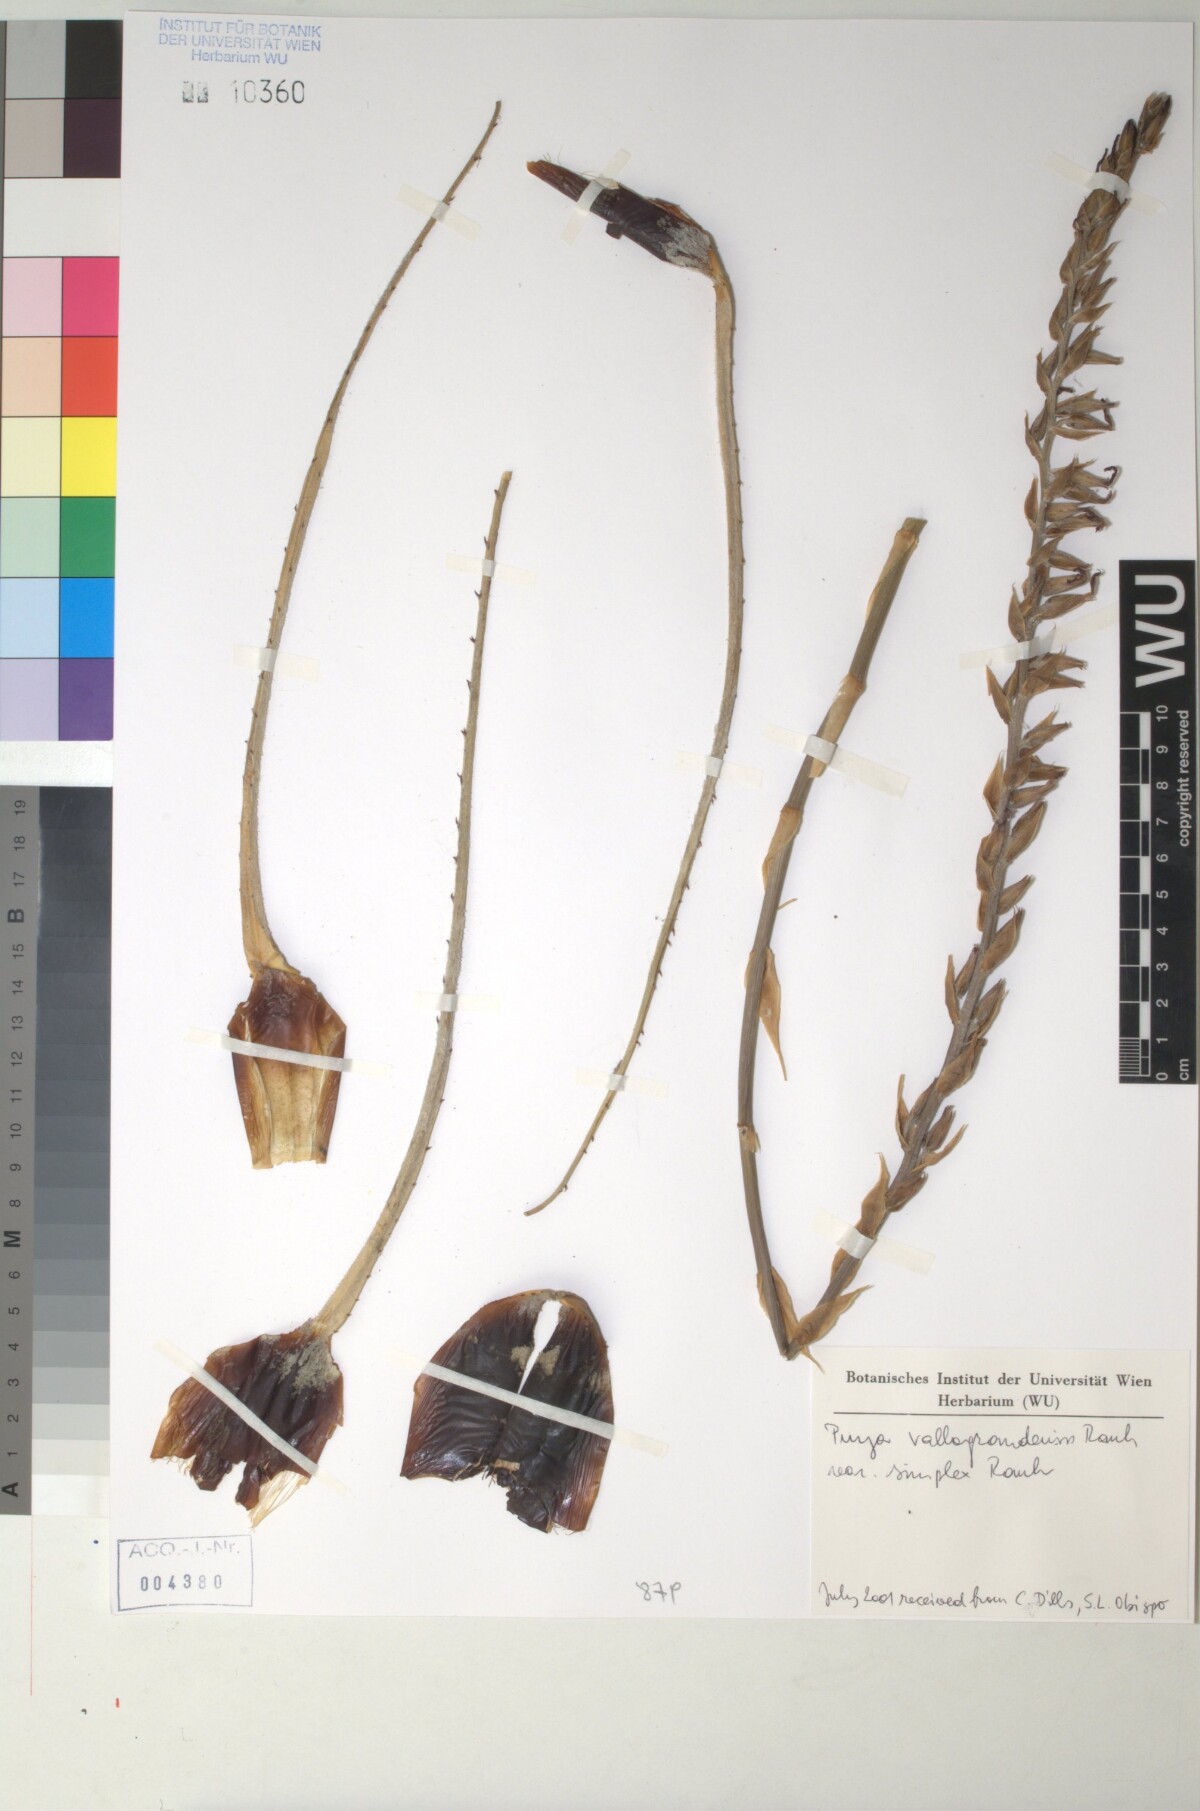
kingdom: Plantae
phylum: Tracheophyta
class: Liliopsida
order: Poales
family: Bromeliaceae
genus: Puya
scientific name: Puya vallo-grandensis
